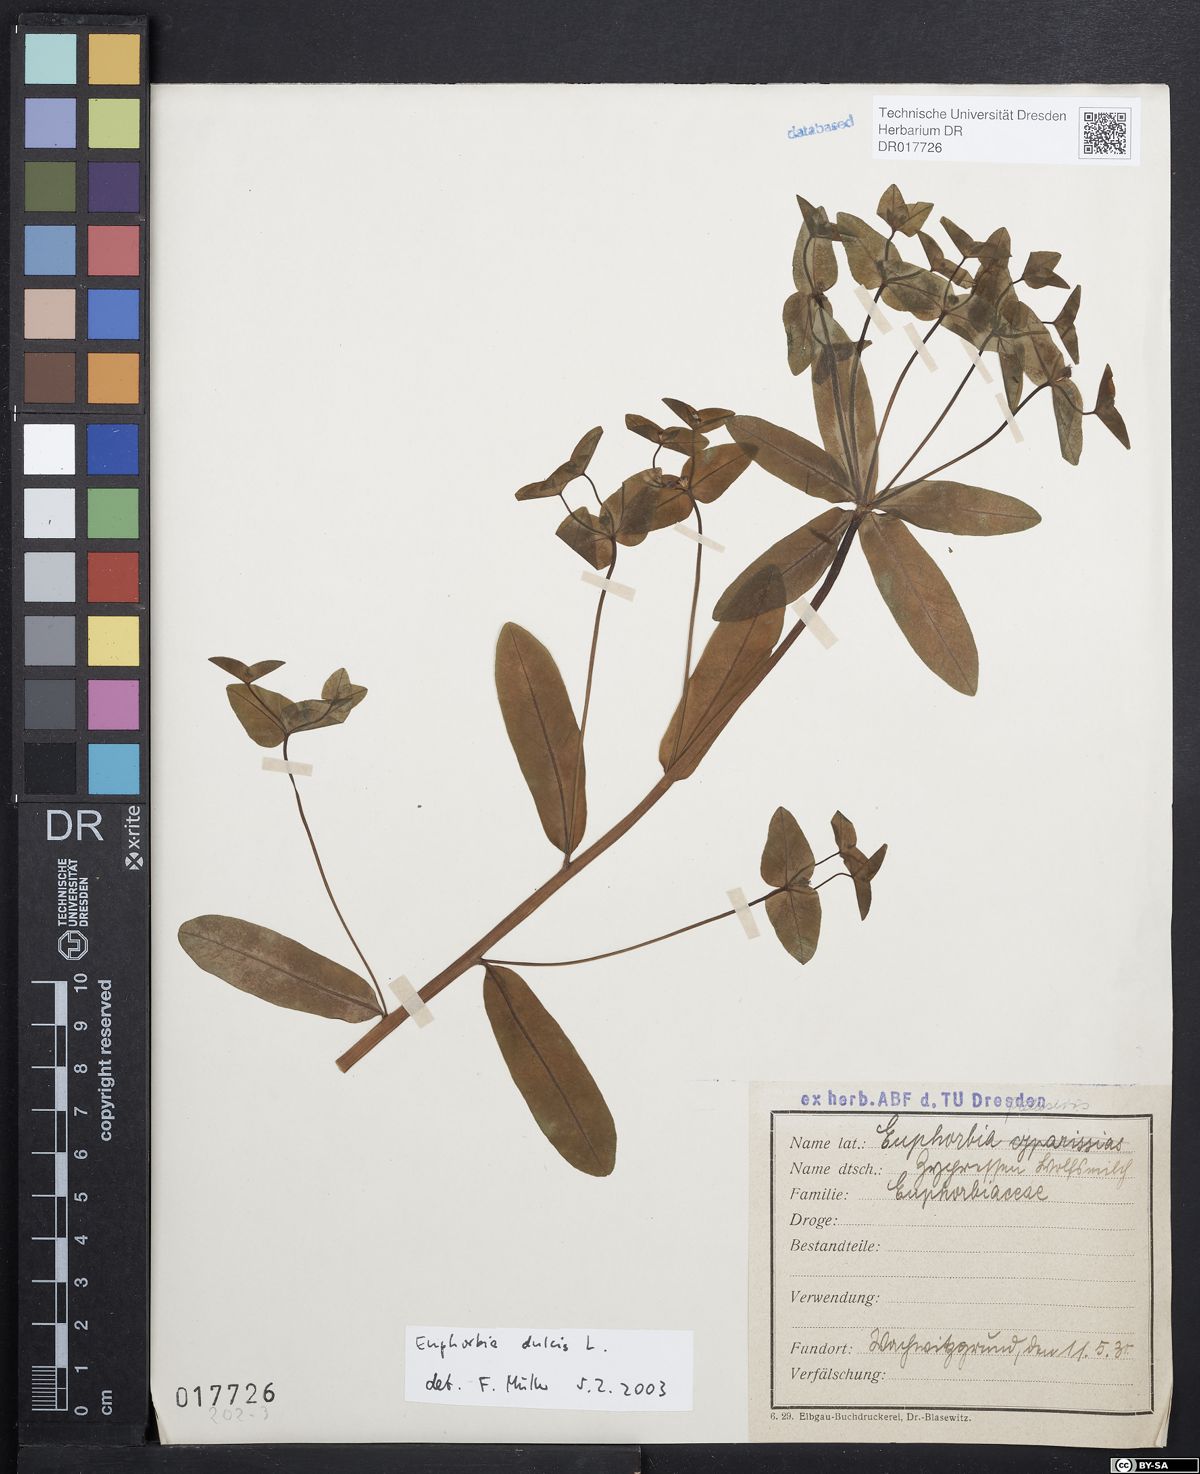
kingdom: Plantae
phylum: Tracheophyta
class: Magnoliopsida
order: Malpighiales
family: Euphorbiaceae
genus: Euphorbia
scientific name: Euphorbia dulcis
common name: Sweet spurge
